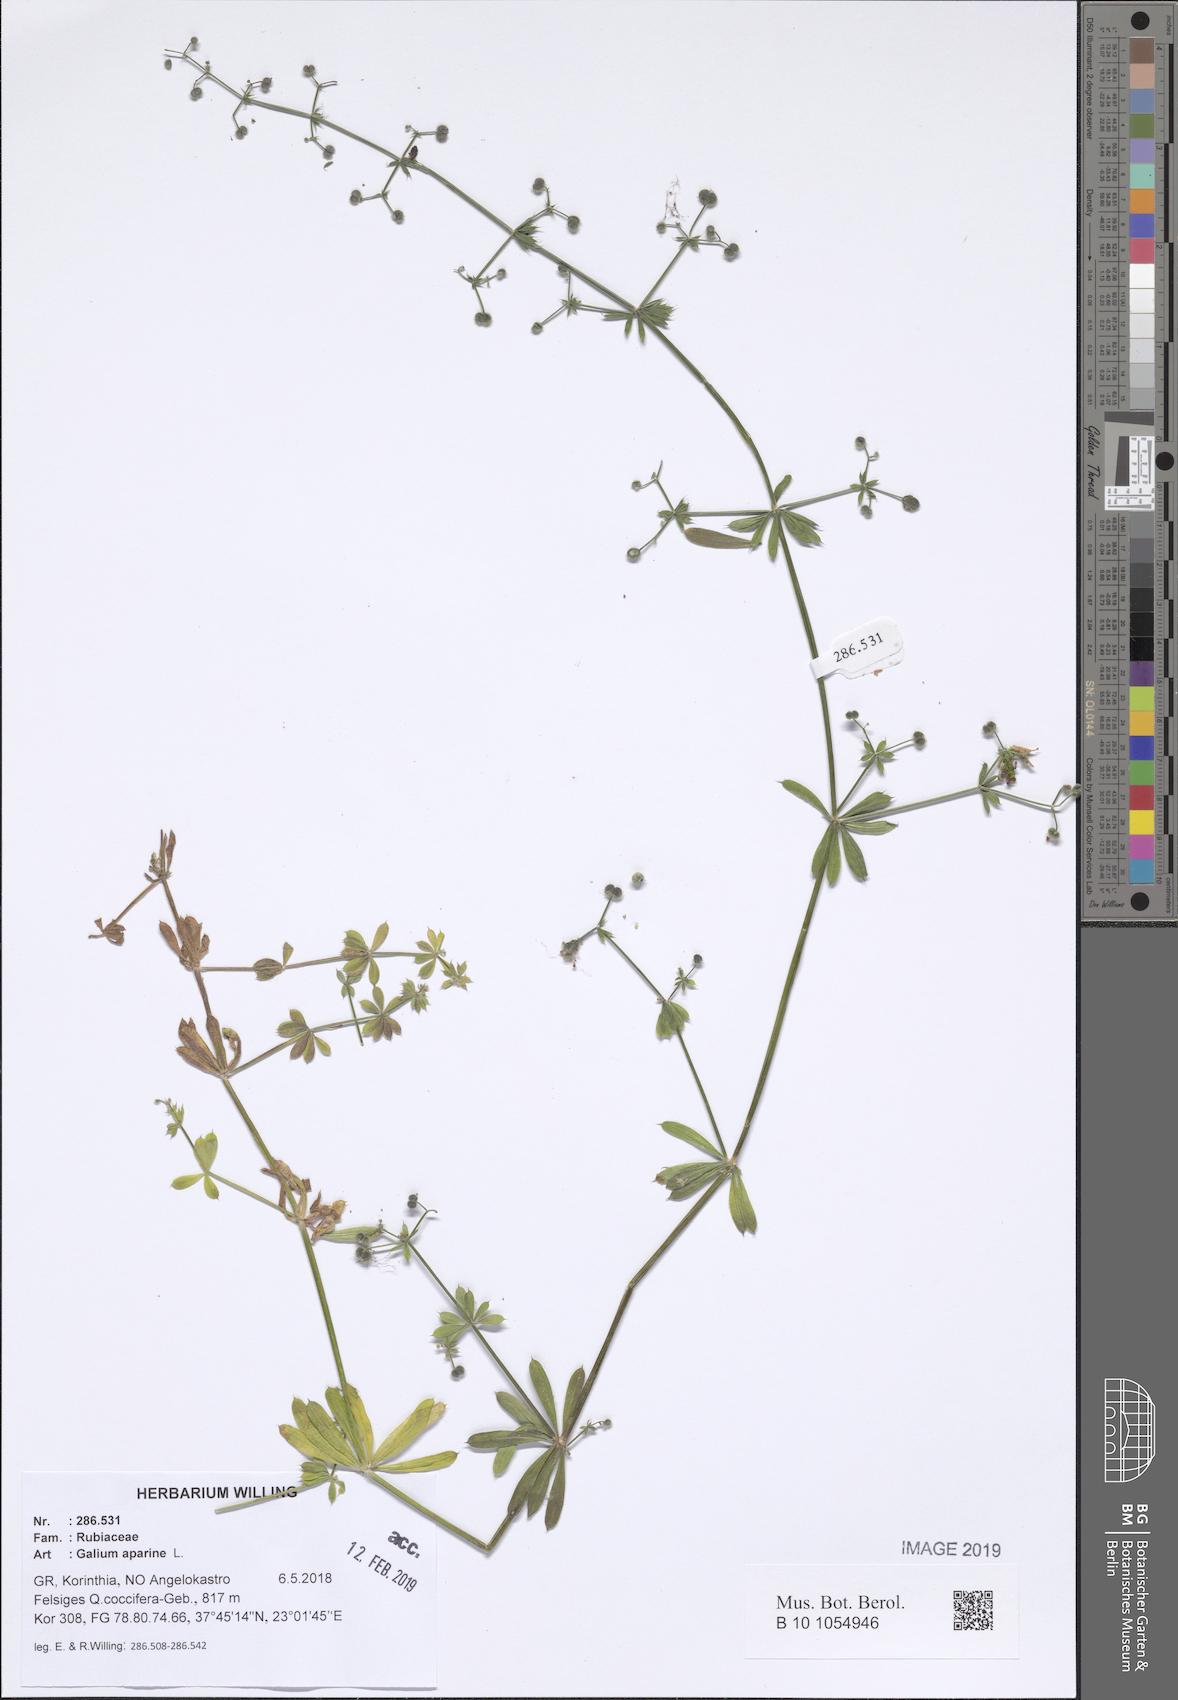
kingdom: Plantae
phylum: Tracheophyta
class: Magnoliopsida
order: Gentianales
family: Rubiaceae
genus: Galium
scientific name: Galium aparine
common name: Cleavers
